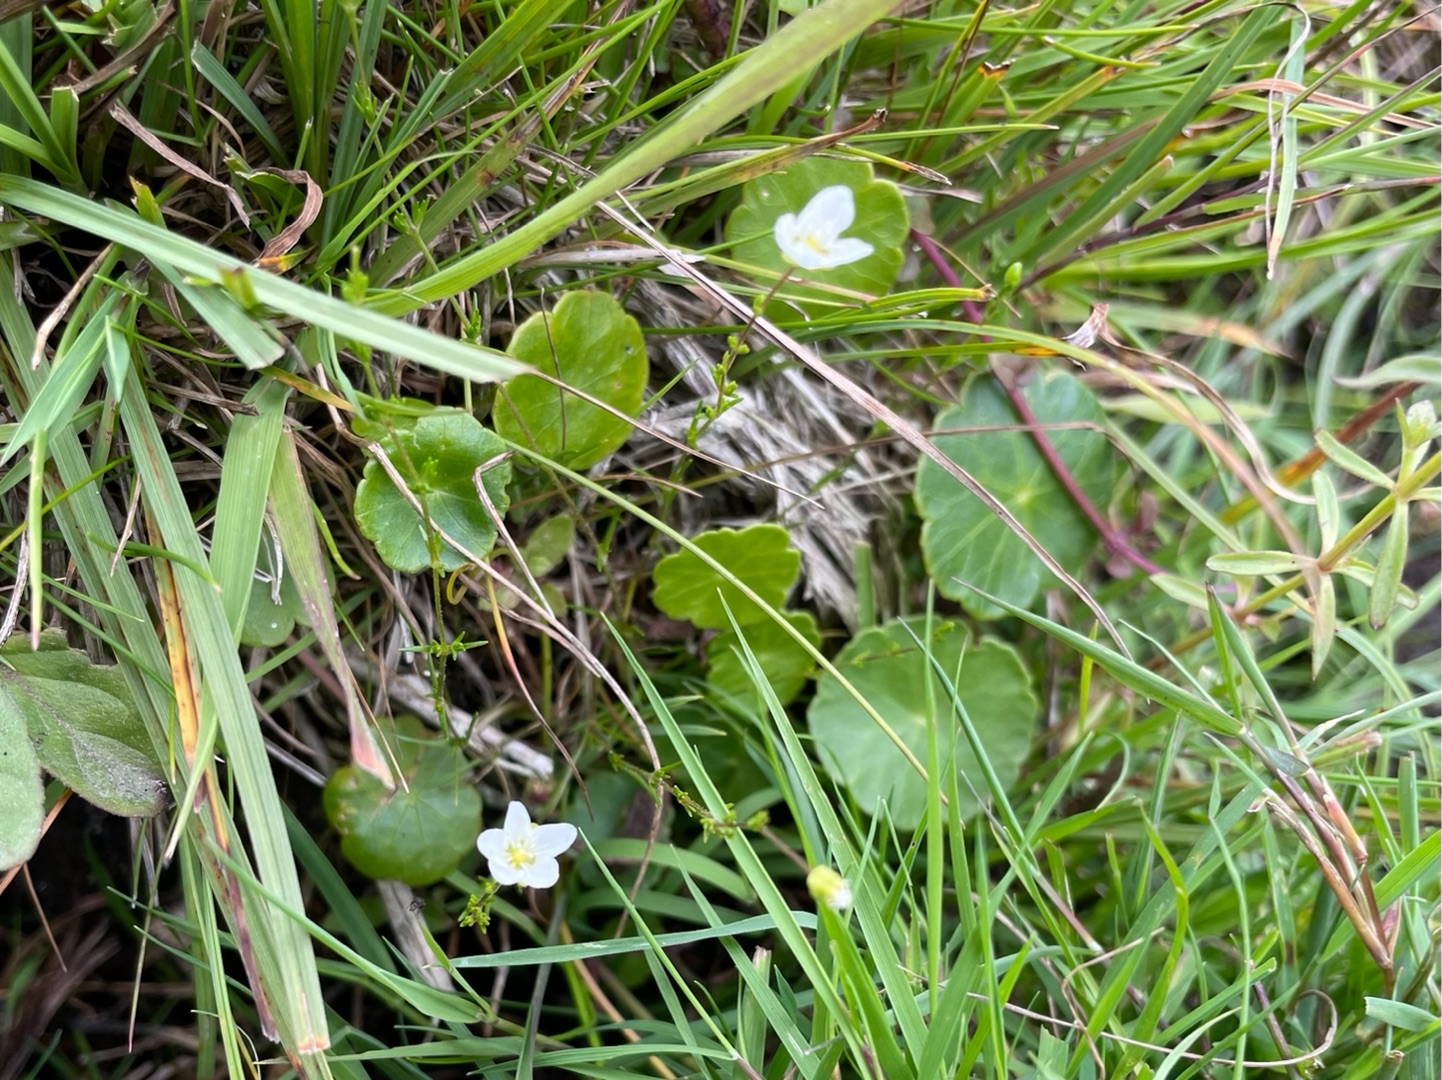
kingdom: Plantae
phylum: Tracheophyta
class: Magnoliopsida
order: Caryophyllales
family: Caryophyllaceae
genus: Sagina
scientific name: Sagina nodosa
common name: Knude-firling
